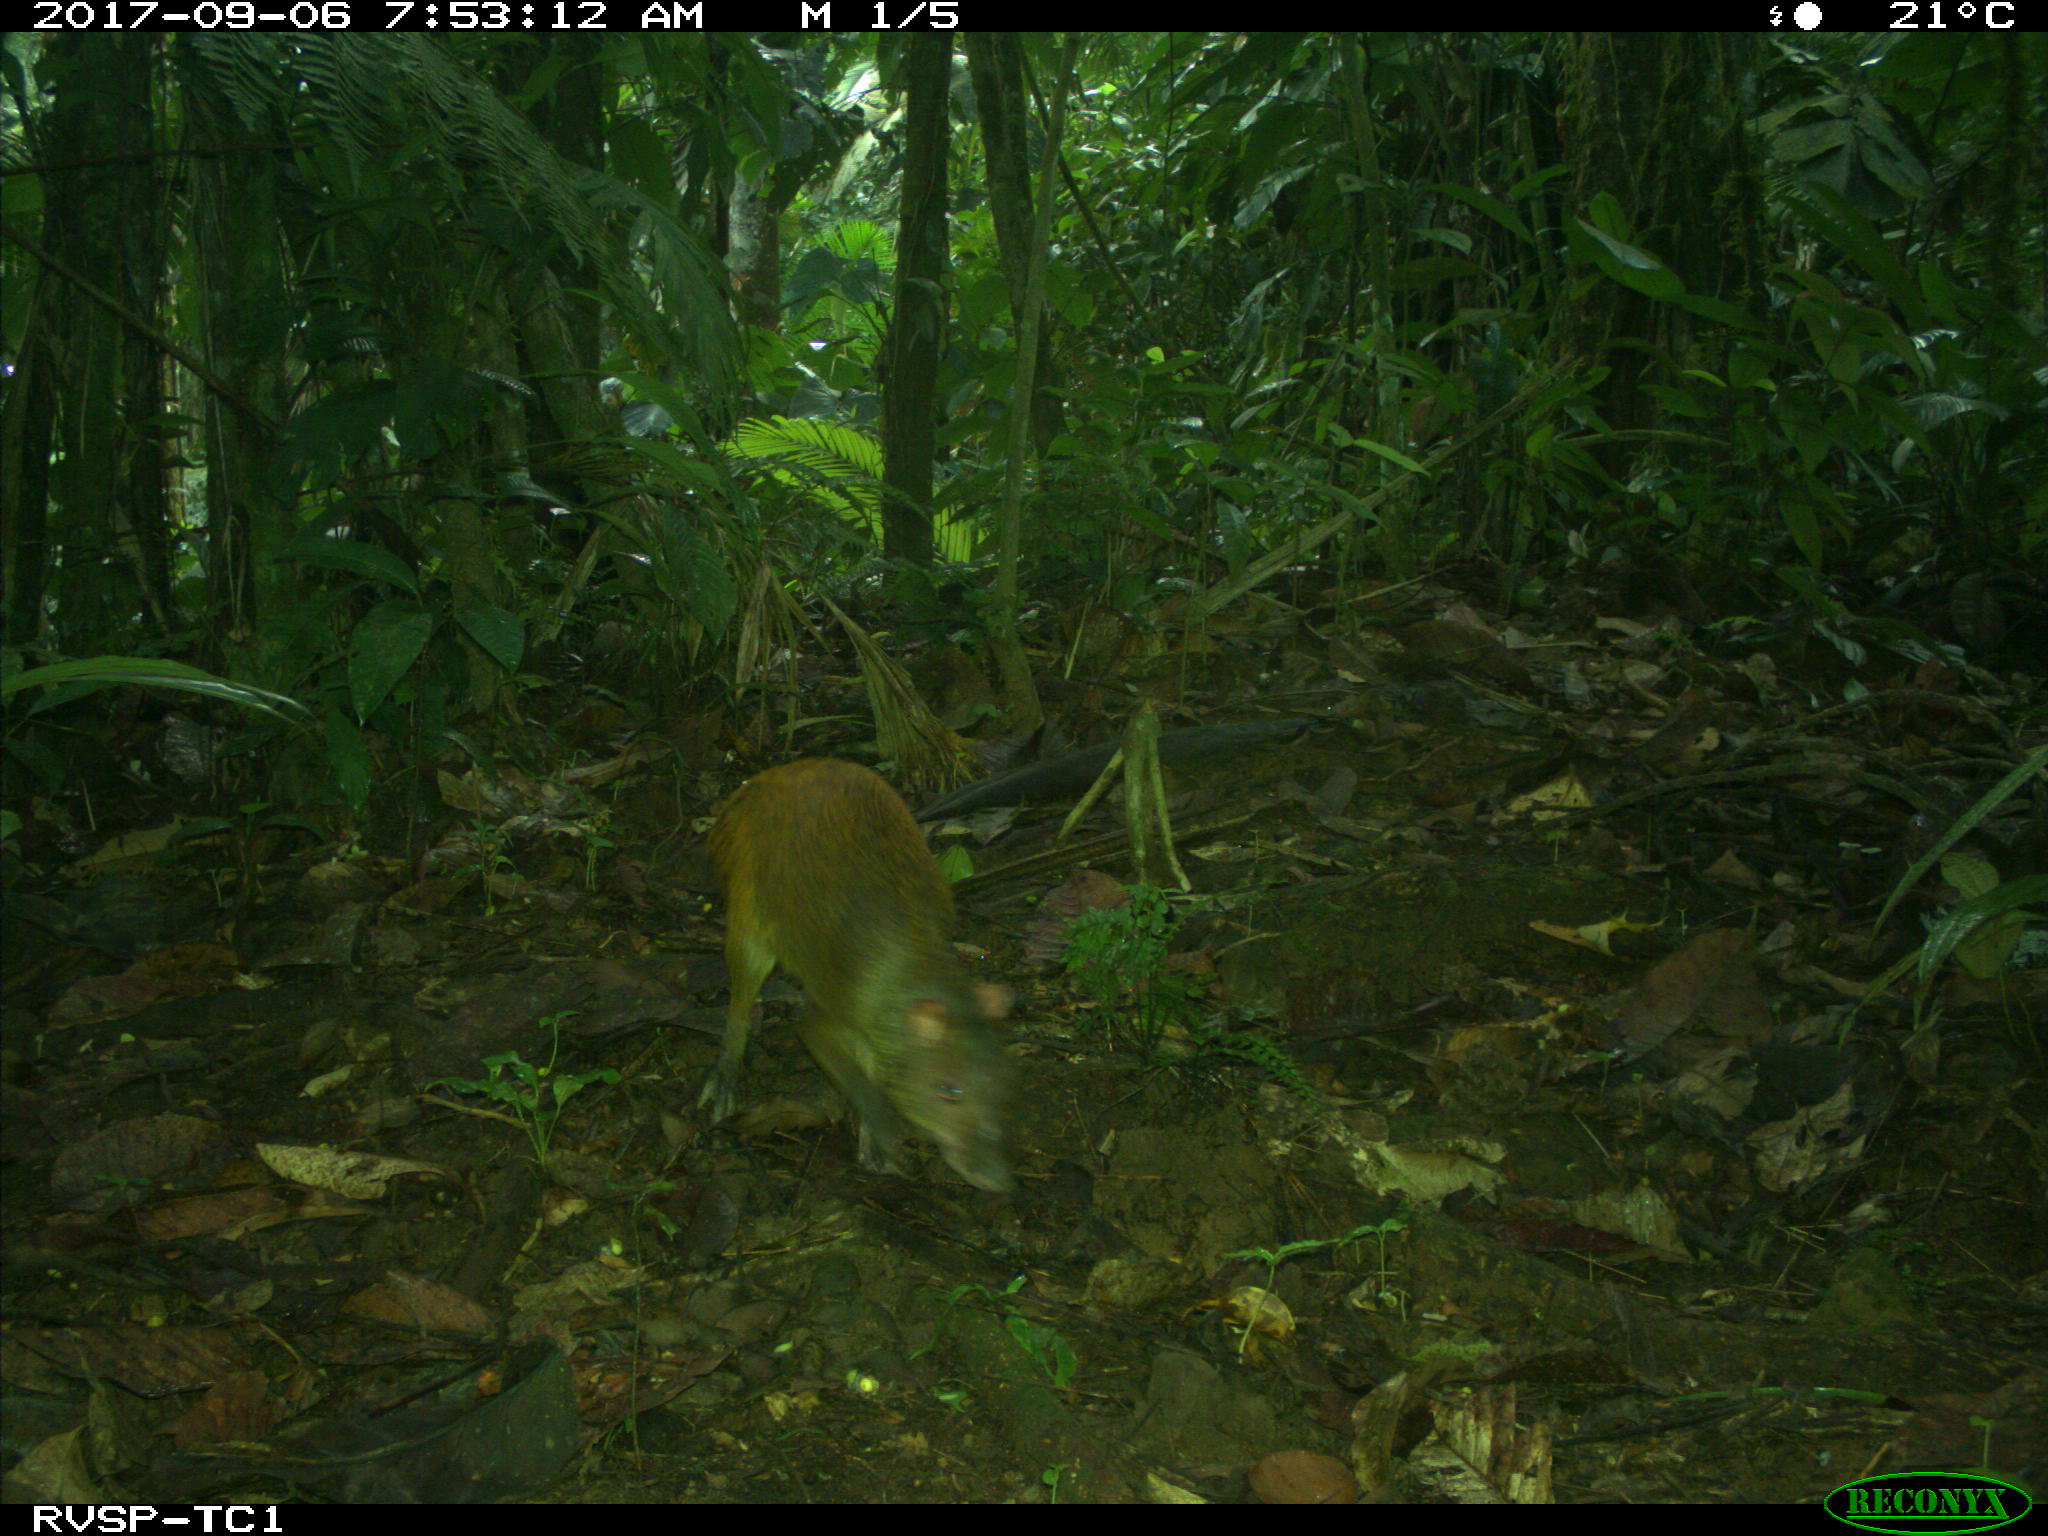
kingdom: Animalia
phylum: Chordata
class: Mammalia
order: Rodentia
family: Dasyproctidae
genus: Dasyprocta
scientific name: Dasyprocta punctata
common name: Central american agouti
